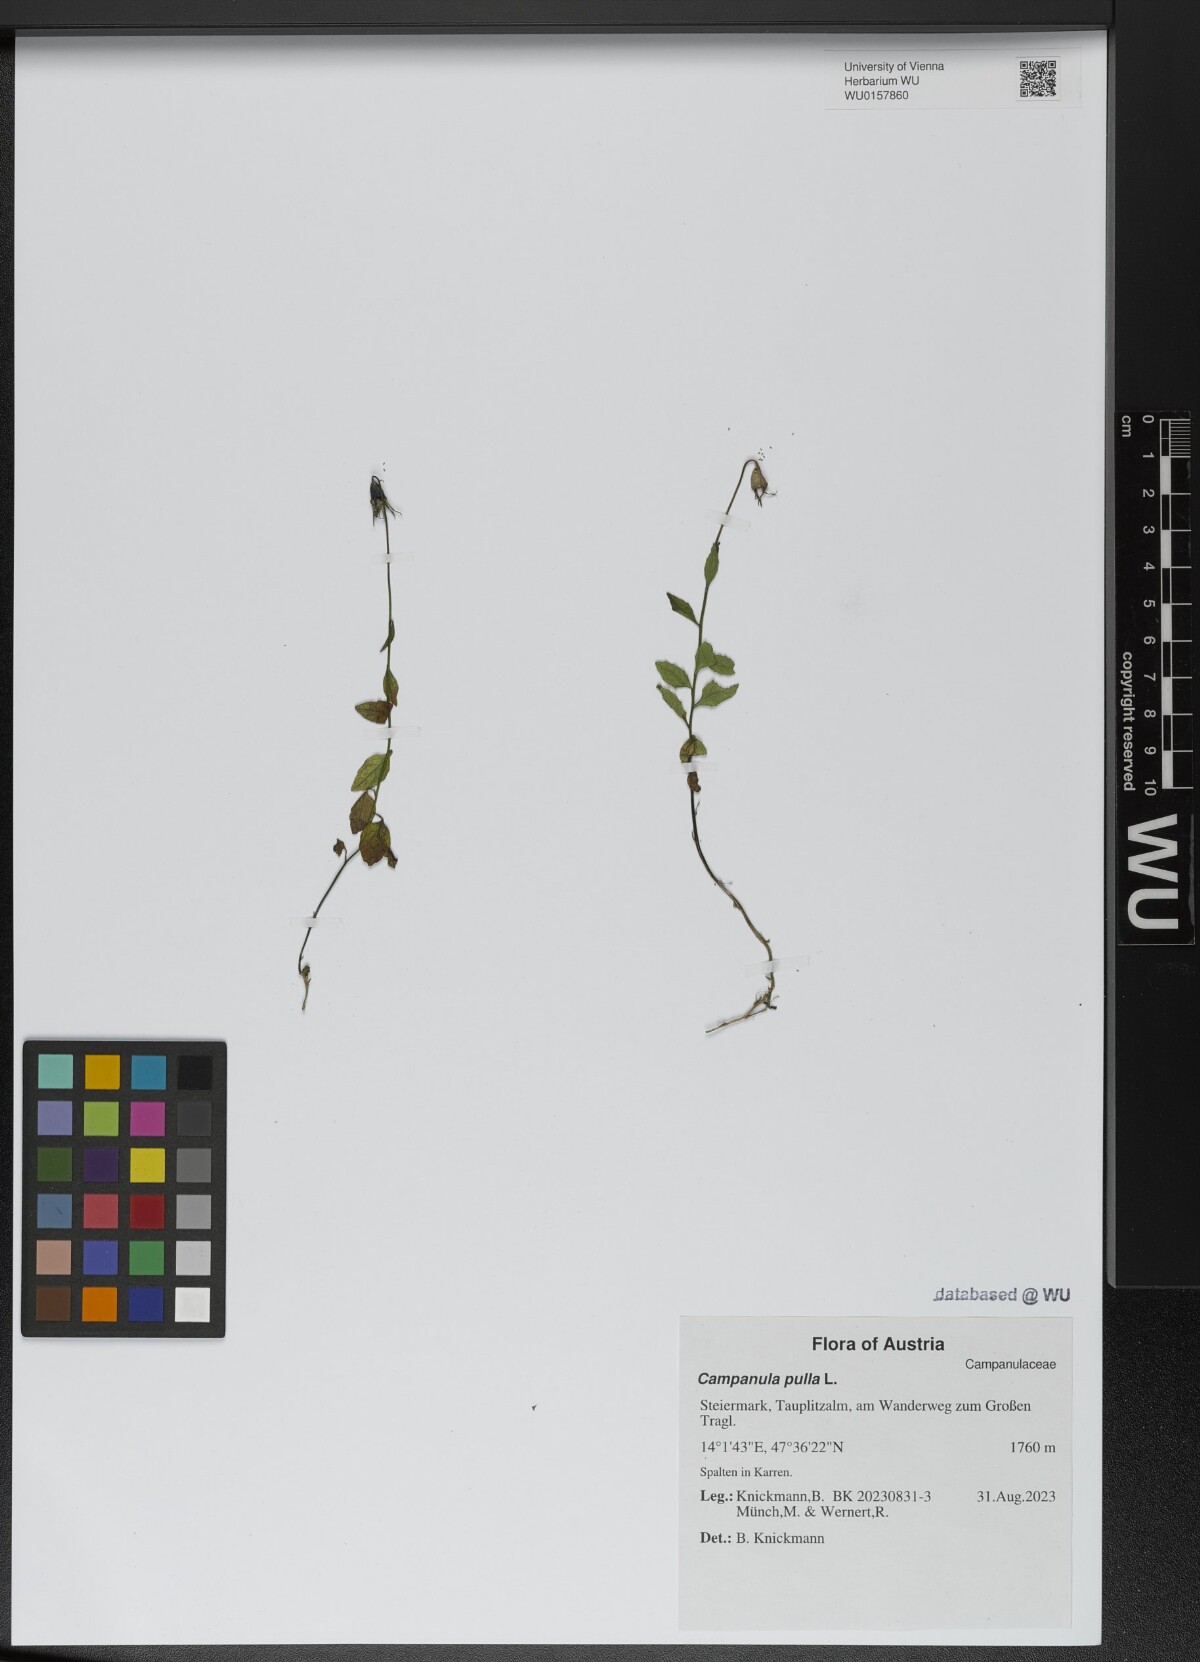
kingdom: Plantae
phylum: Tracheophyta
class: Magnoliopsida
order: Asterales
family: Campanulaceae
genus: Campanula
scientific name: Campanula pulla
